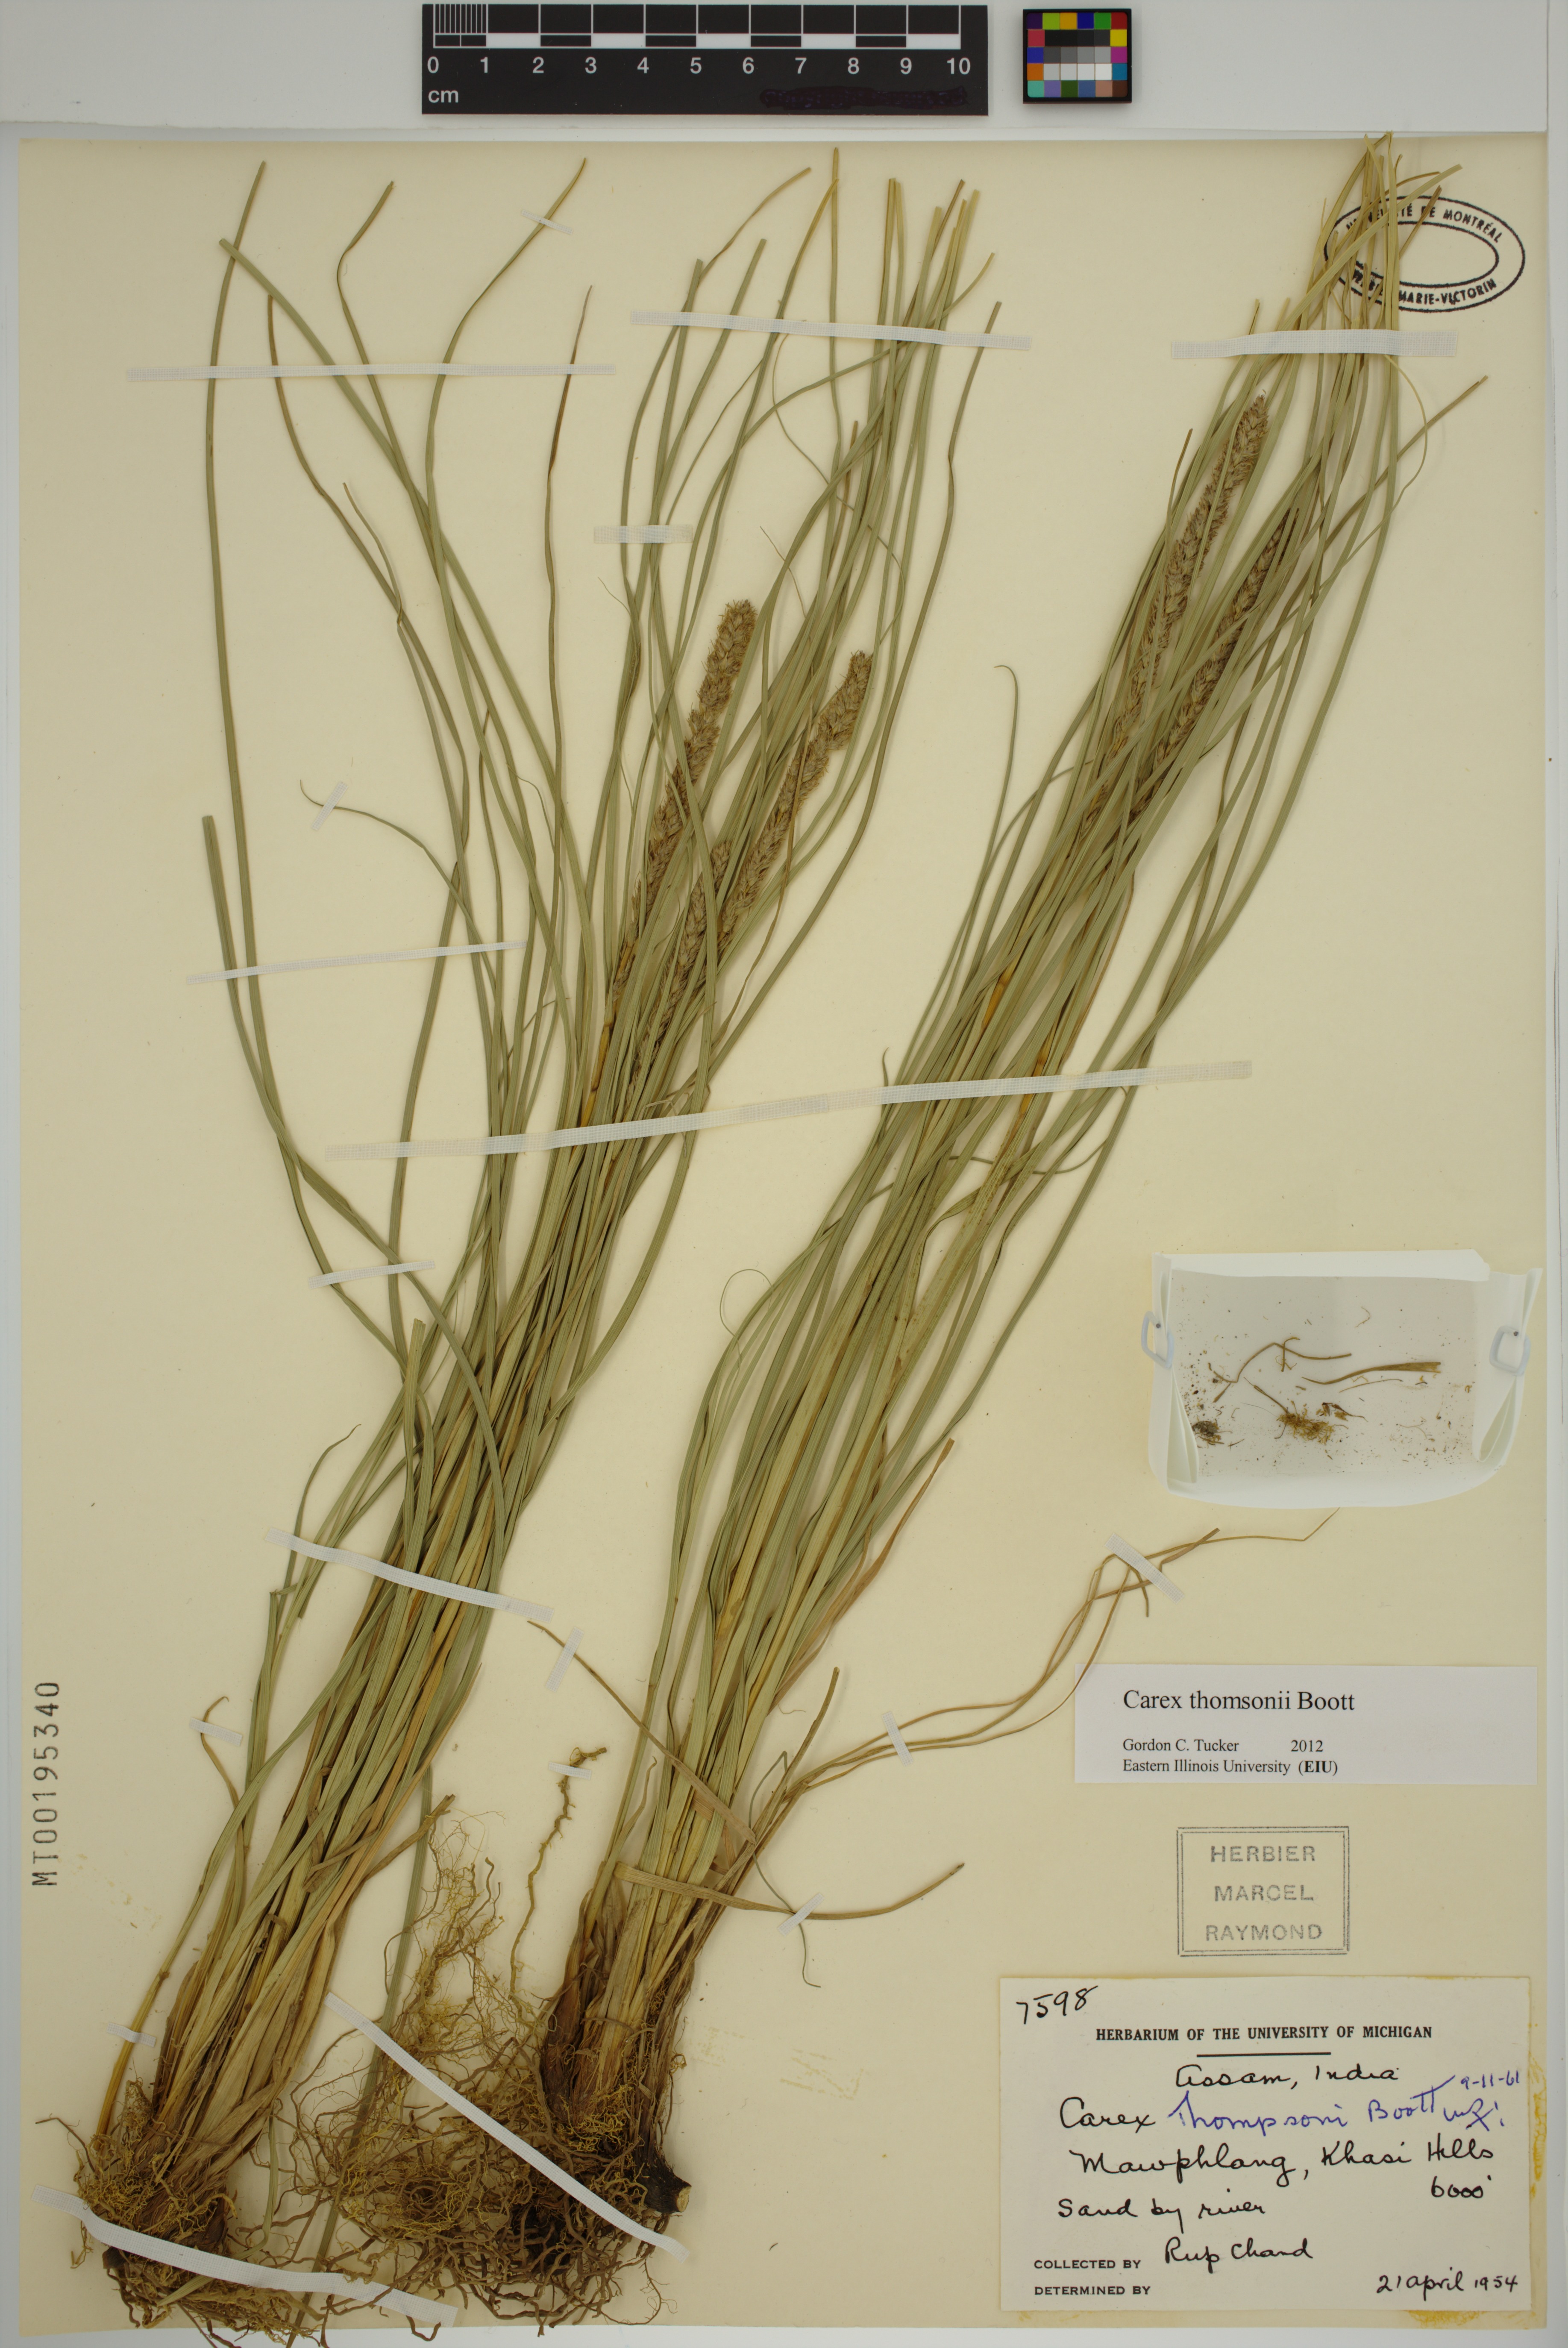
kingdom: Plantae
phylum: Tracheophyta
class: Liliopsida
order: Poales
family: Cyperaceae
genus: Carex
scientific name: Carex thomsonii
